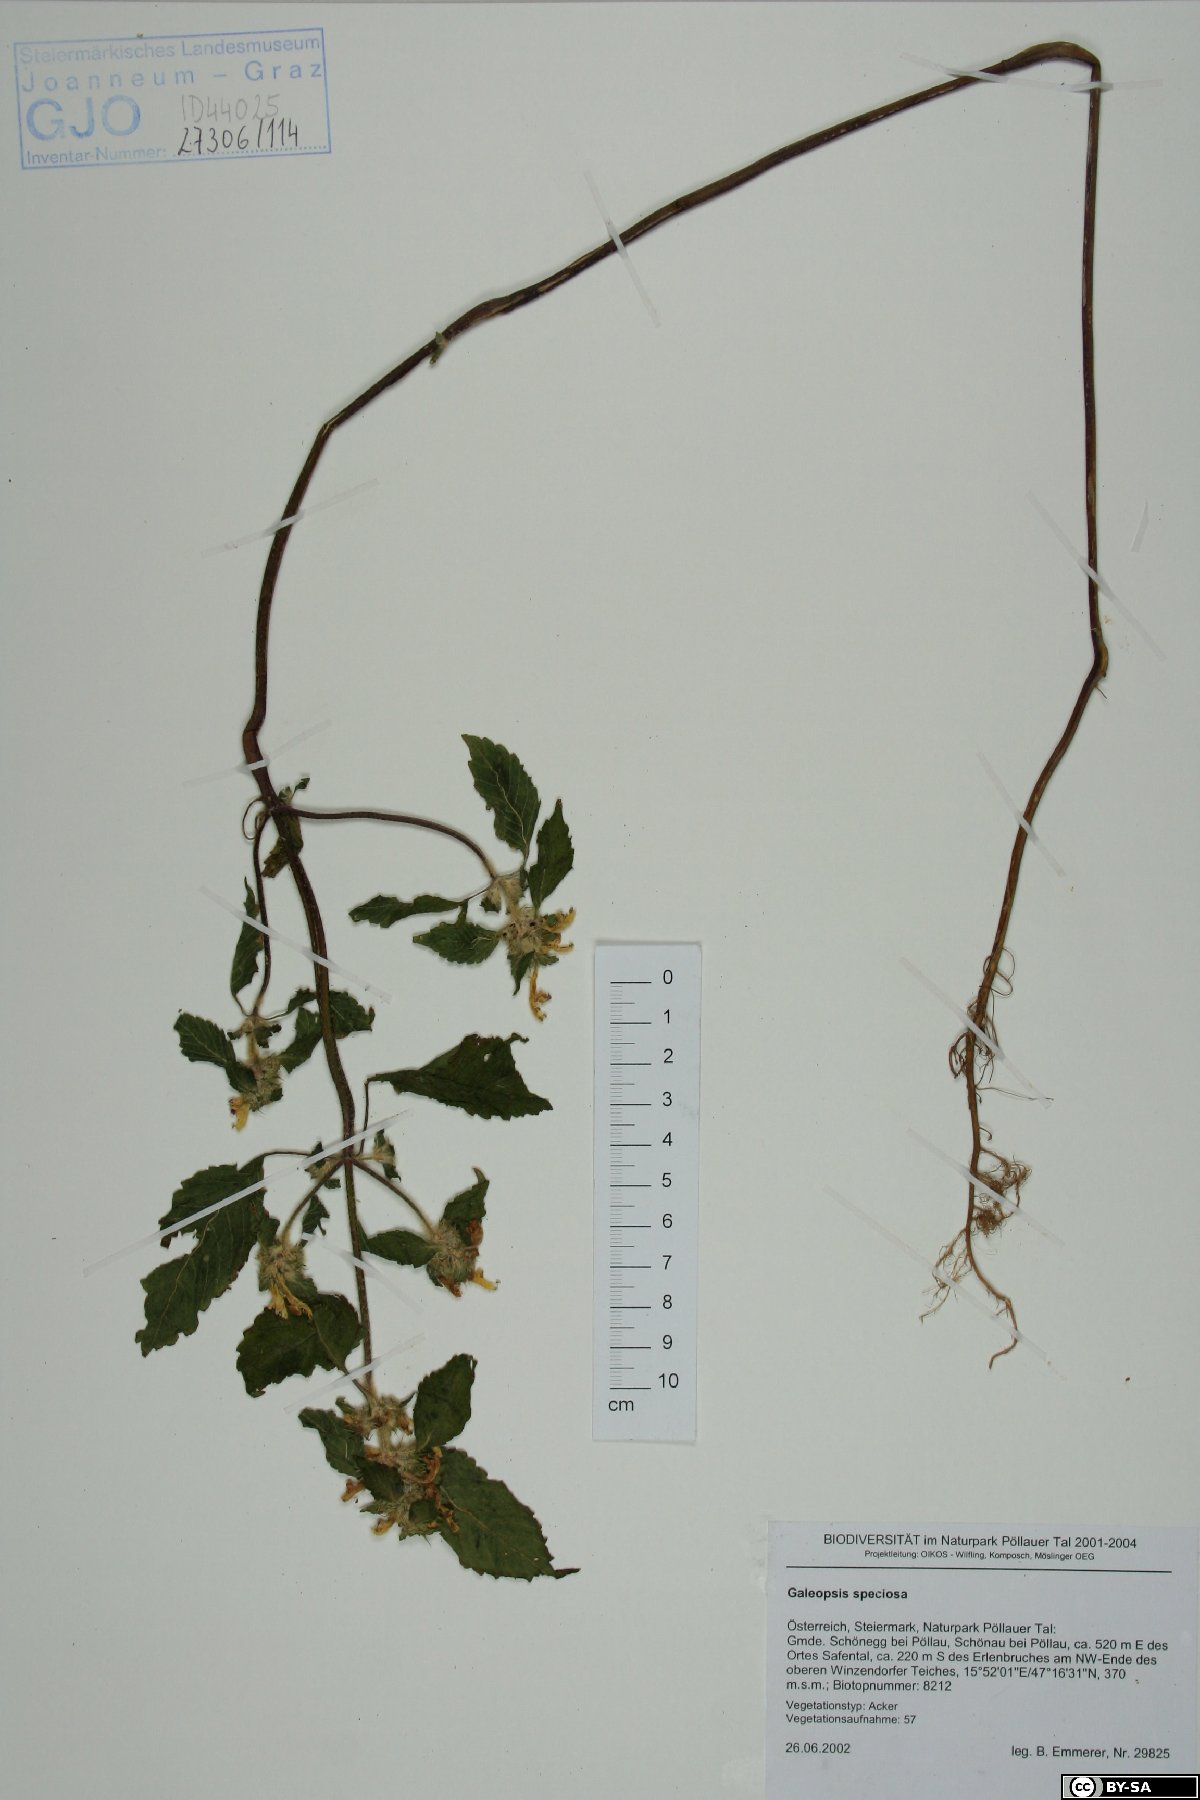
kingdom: Plantae
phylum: Tracheophyta
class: Magnoliopsida
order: Lamiales
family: Lamiaceae
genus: Galeopsis
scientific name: Galeopsis speciosa
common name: Large-flowered hemp-nettle
